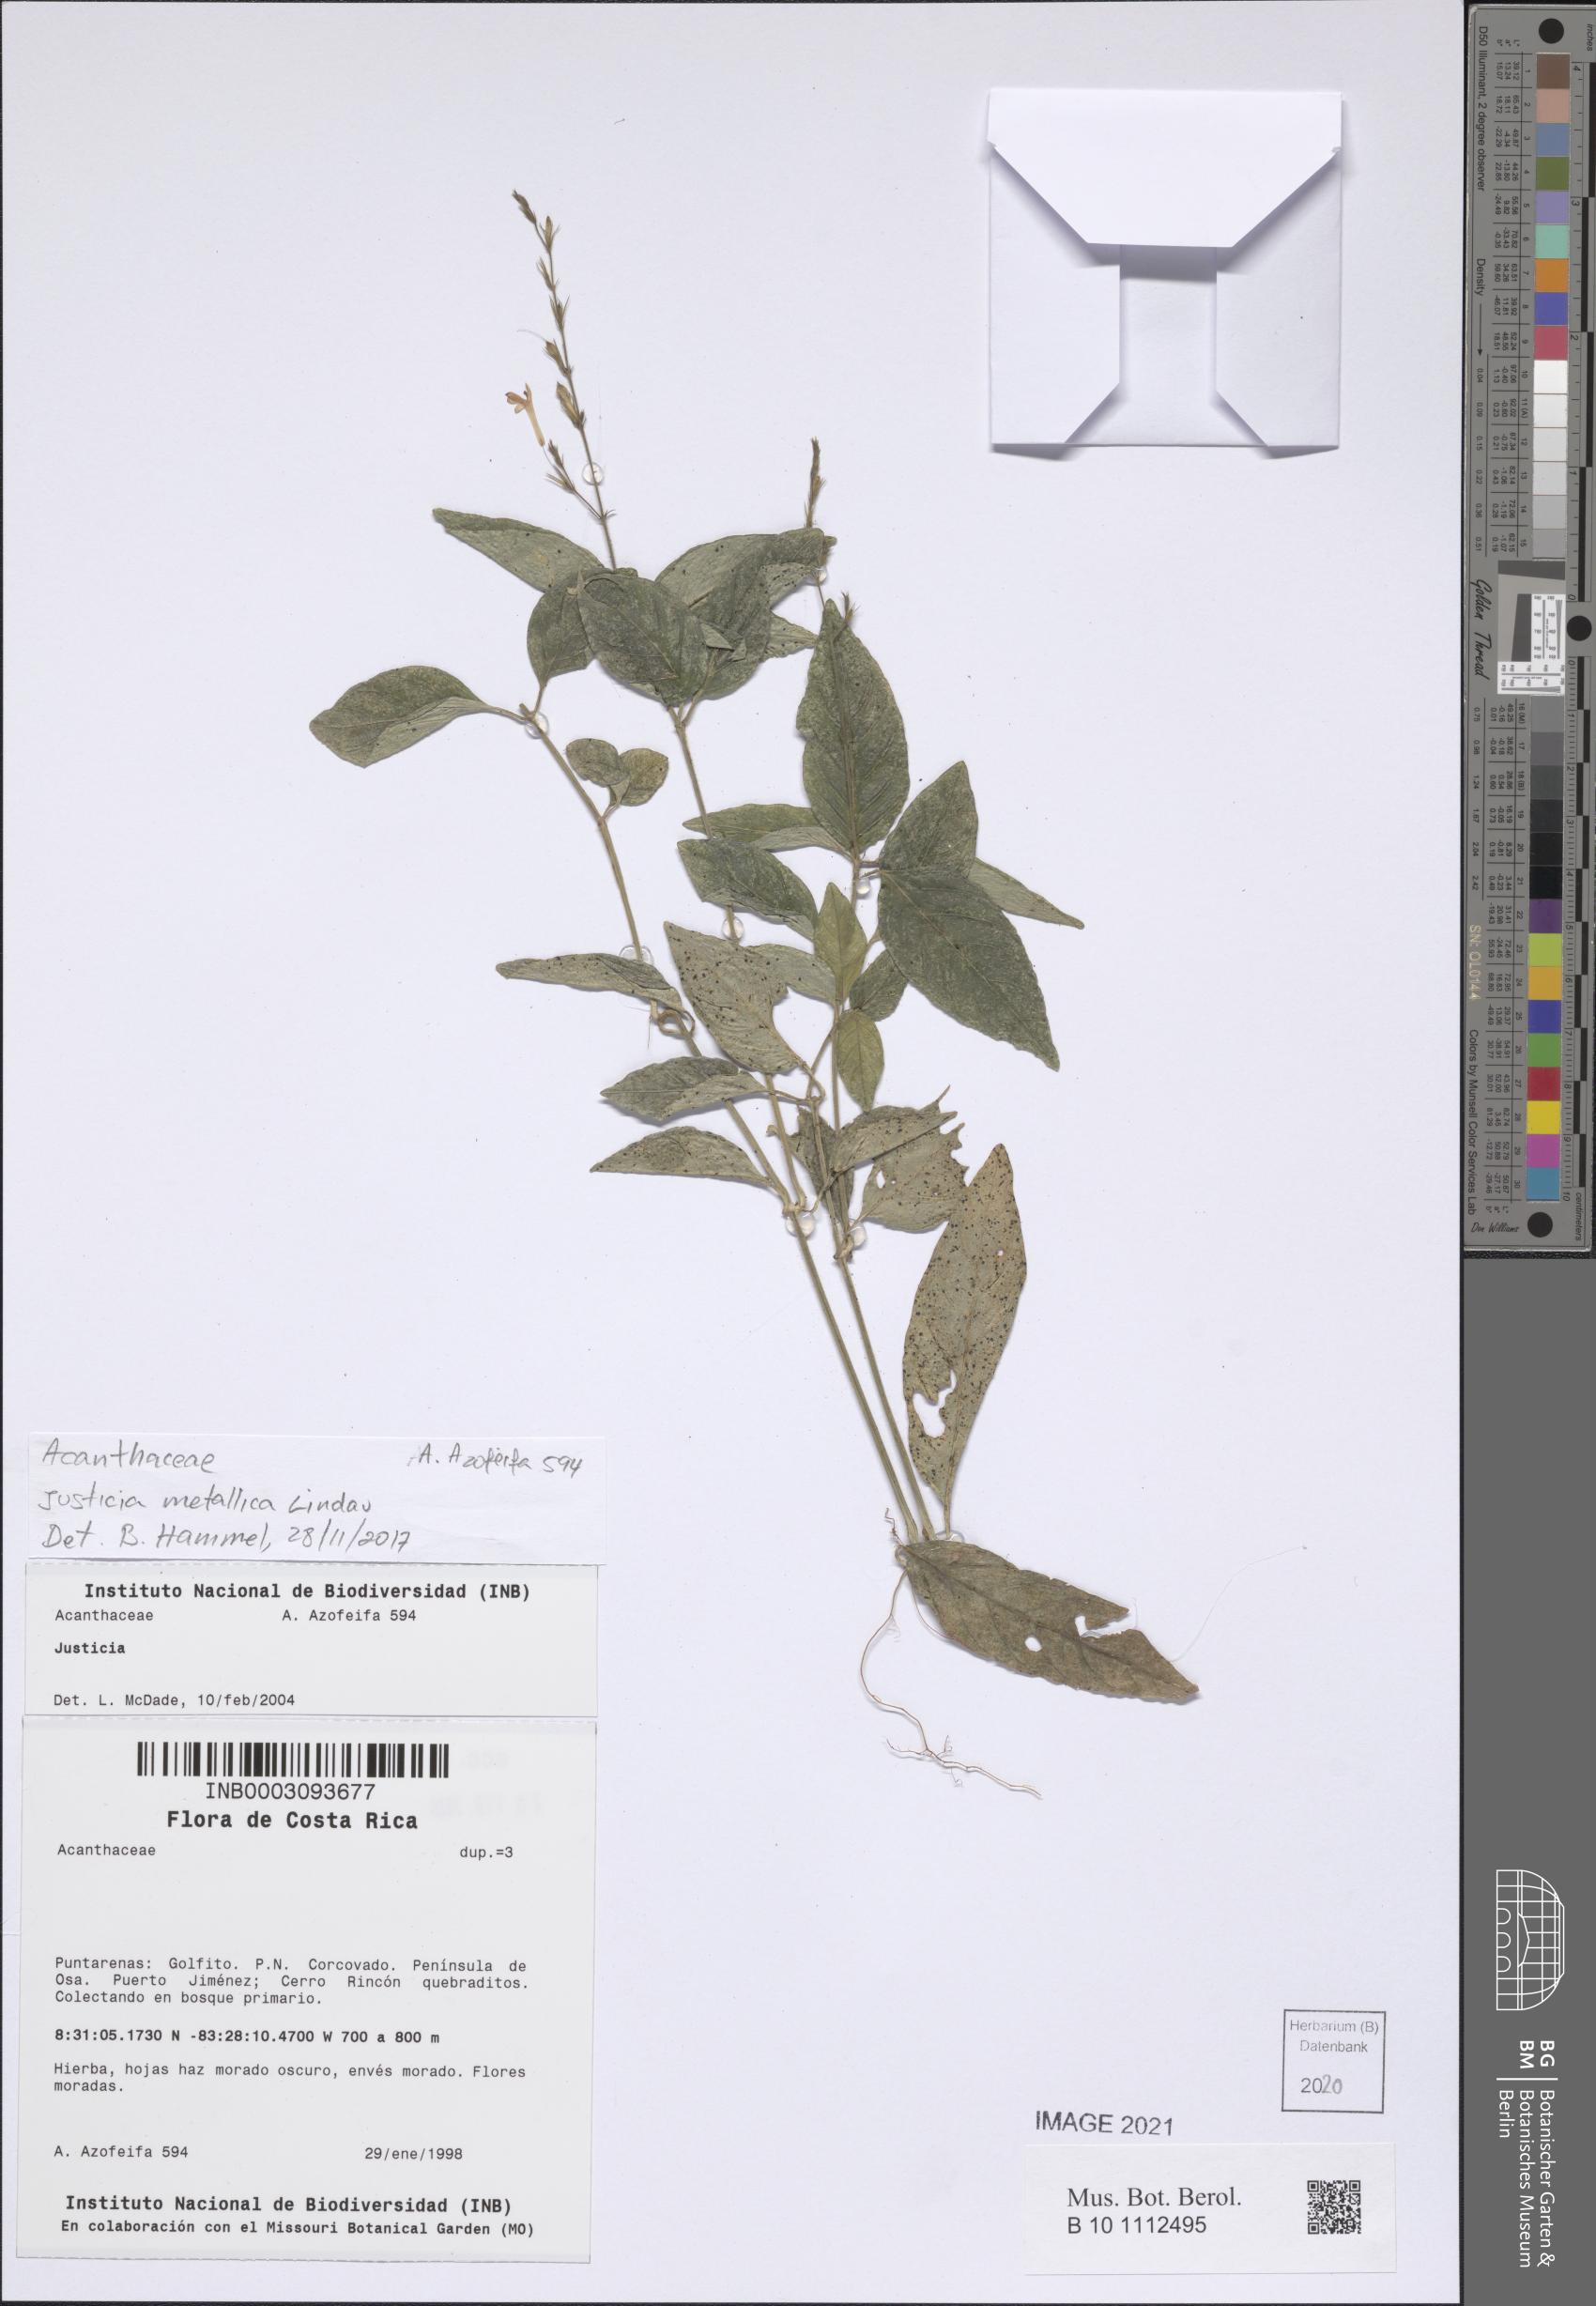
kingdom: Plantae
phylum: Tracheophyta
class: Magnoliopsida
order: Lamiales
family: Acanthaceae
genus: Justicia
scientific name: Justicia
